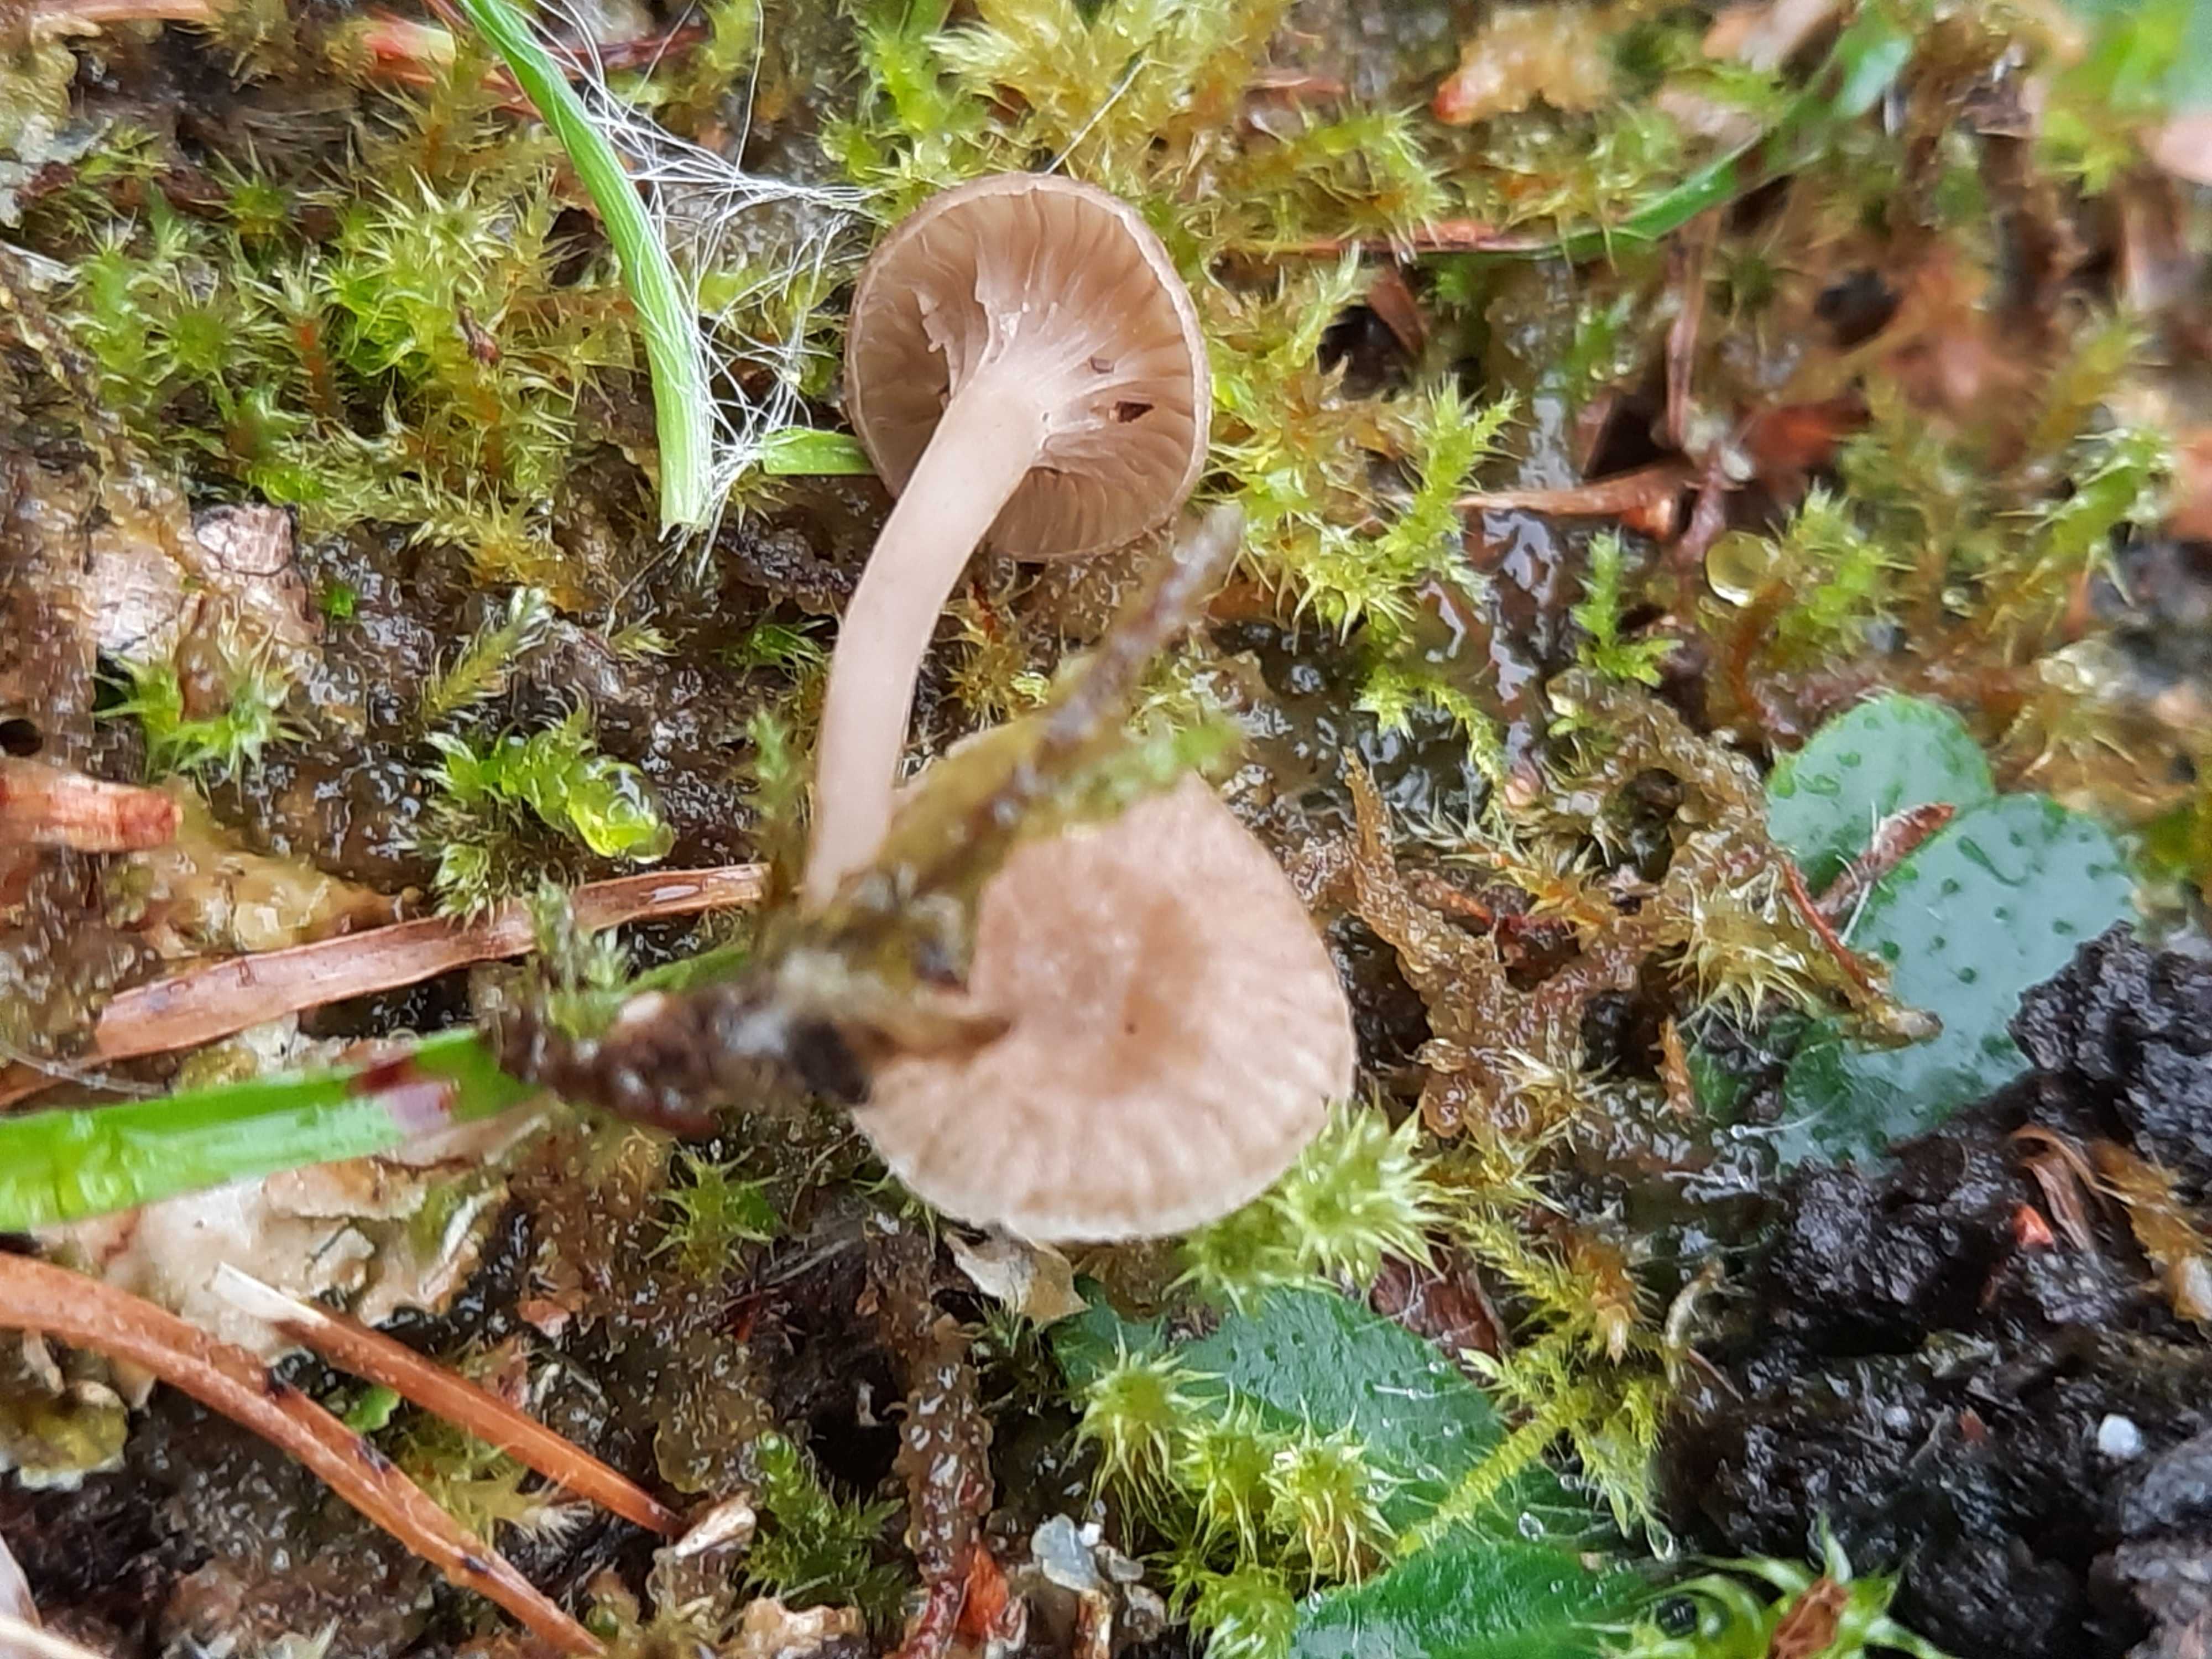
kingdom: Fungi
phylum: Basidiomycota
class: Agaricomycetes
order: Agaricales
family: Hygrophoraceae
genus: Arrhenia
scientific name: Arrhenia peltigerina
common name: skjoldlav-fontænehat
